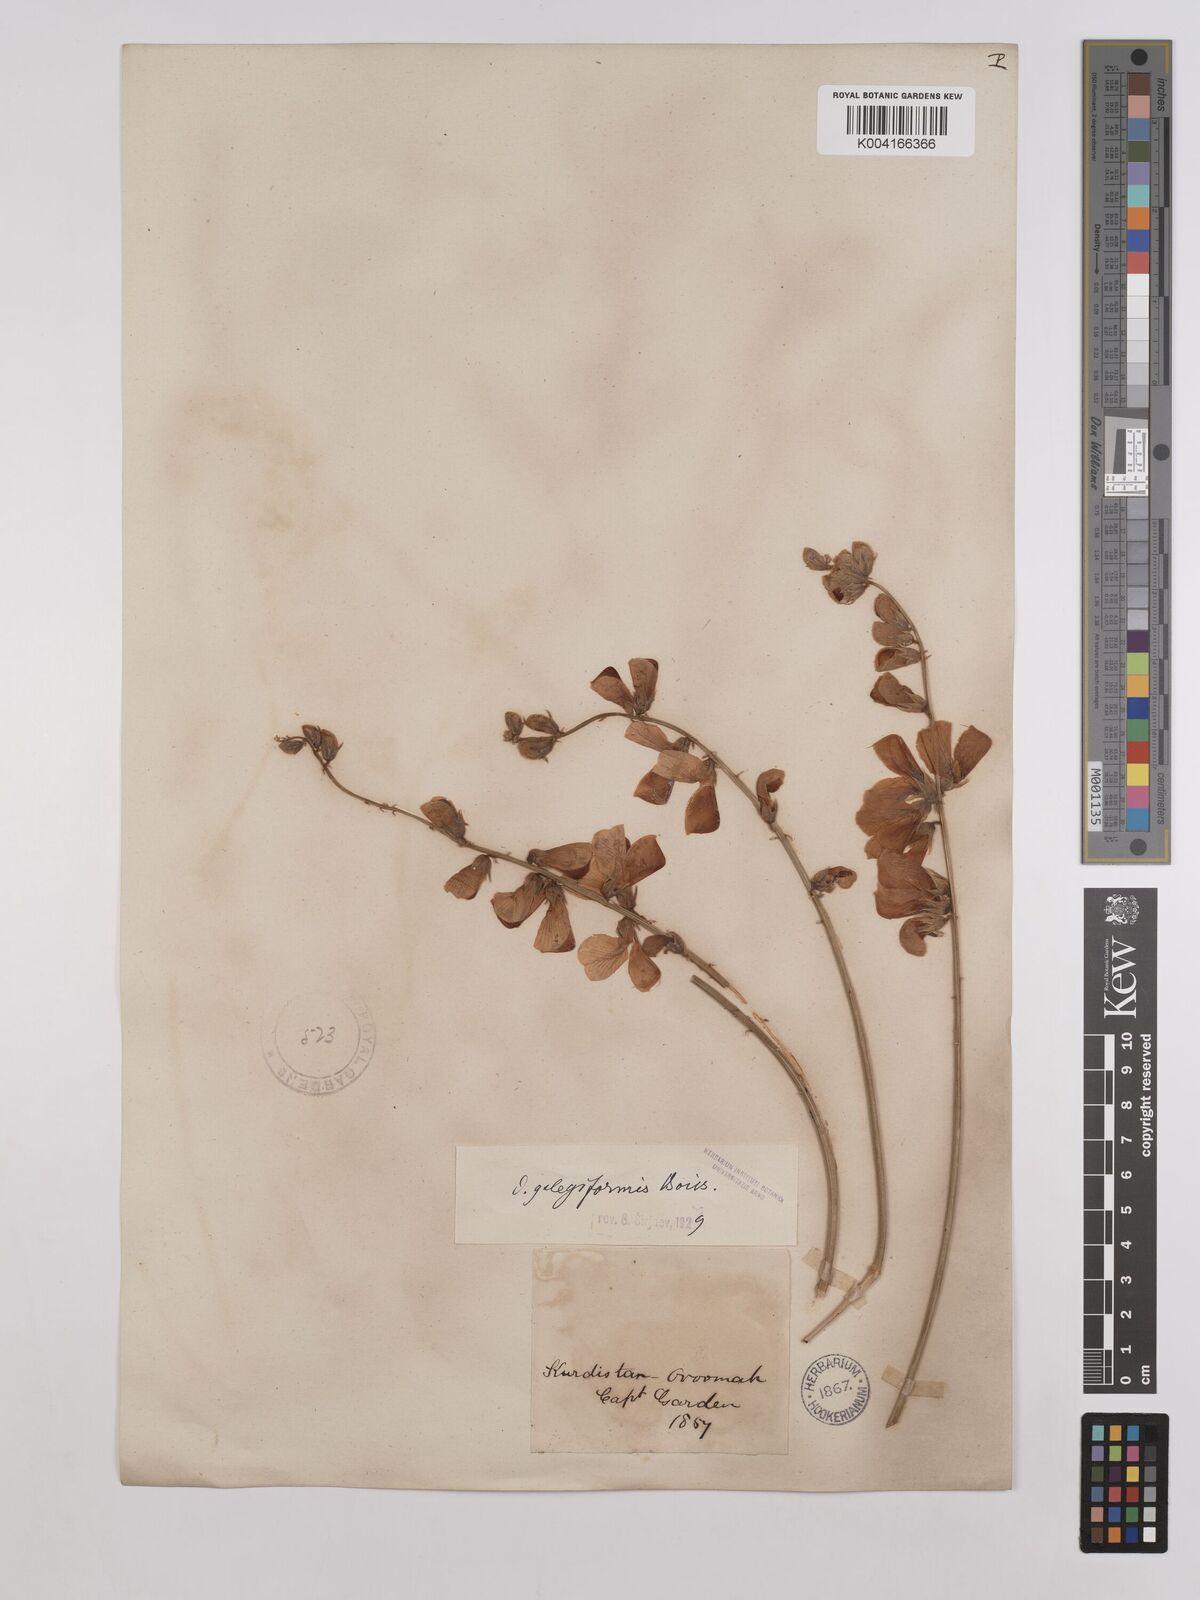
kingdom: Plantae
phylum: Tracheophyta
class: Magnoliopsida
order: Fabales
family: Fabaceae
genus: Onobrychis
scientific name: Onobrychis galegifolia
